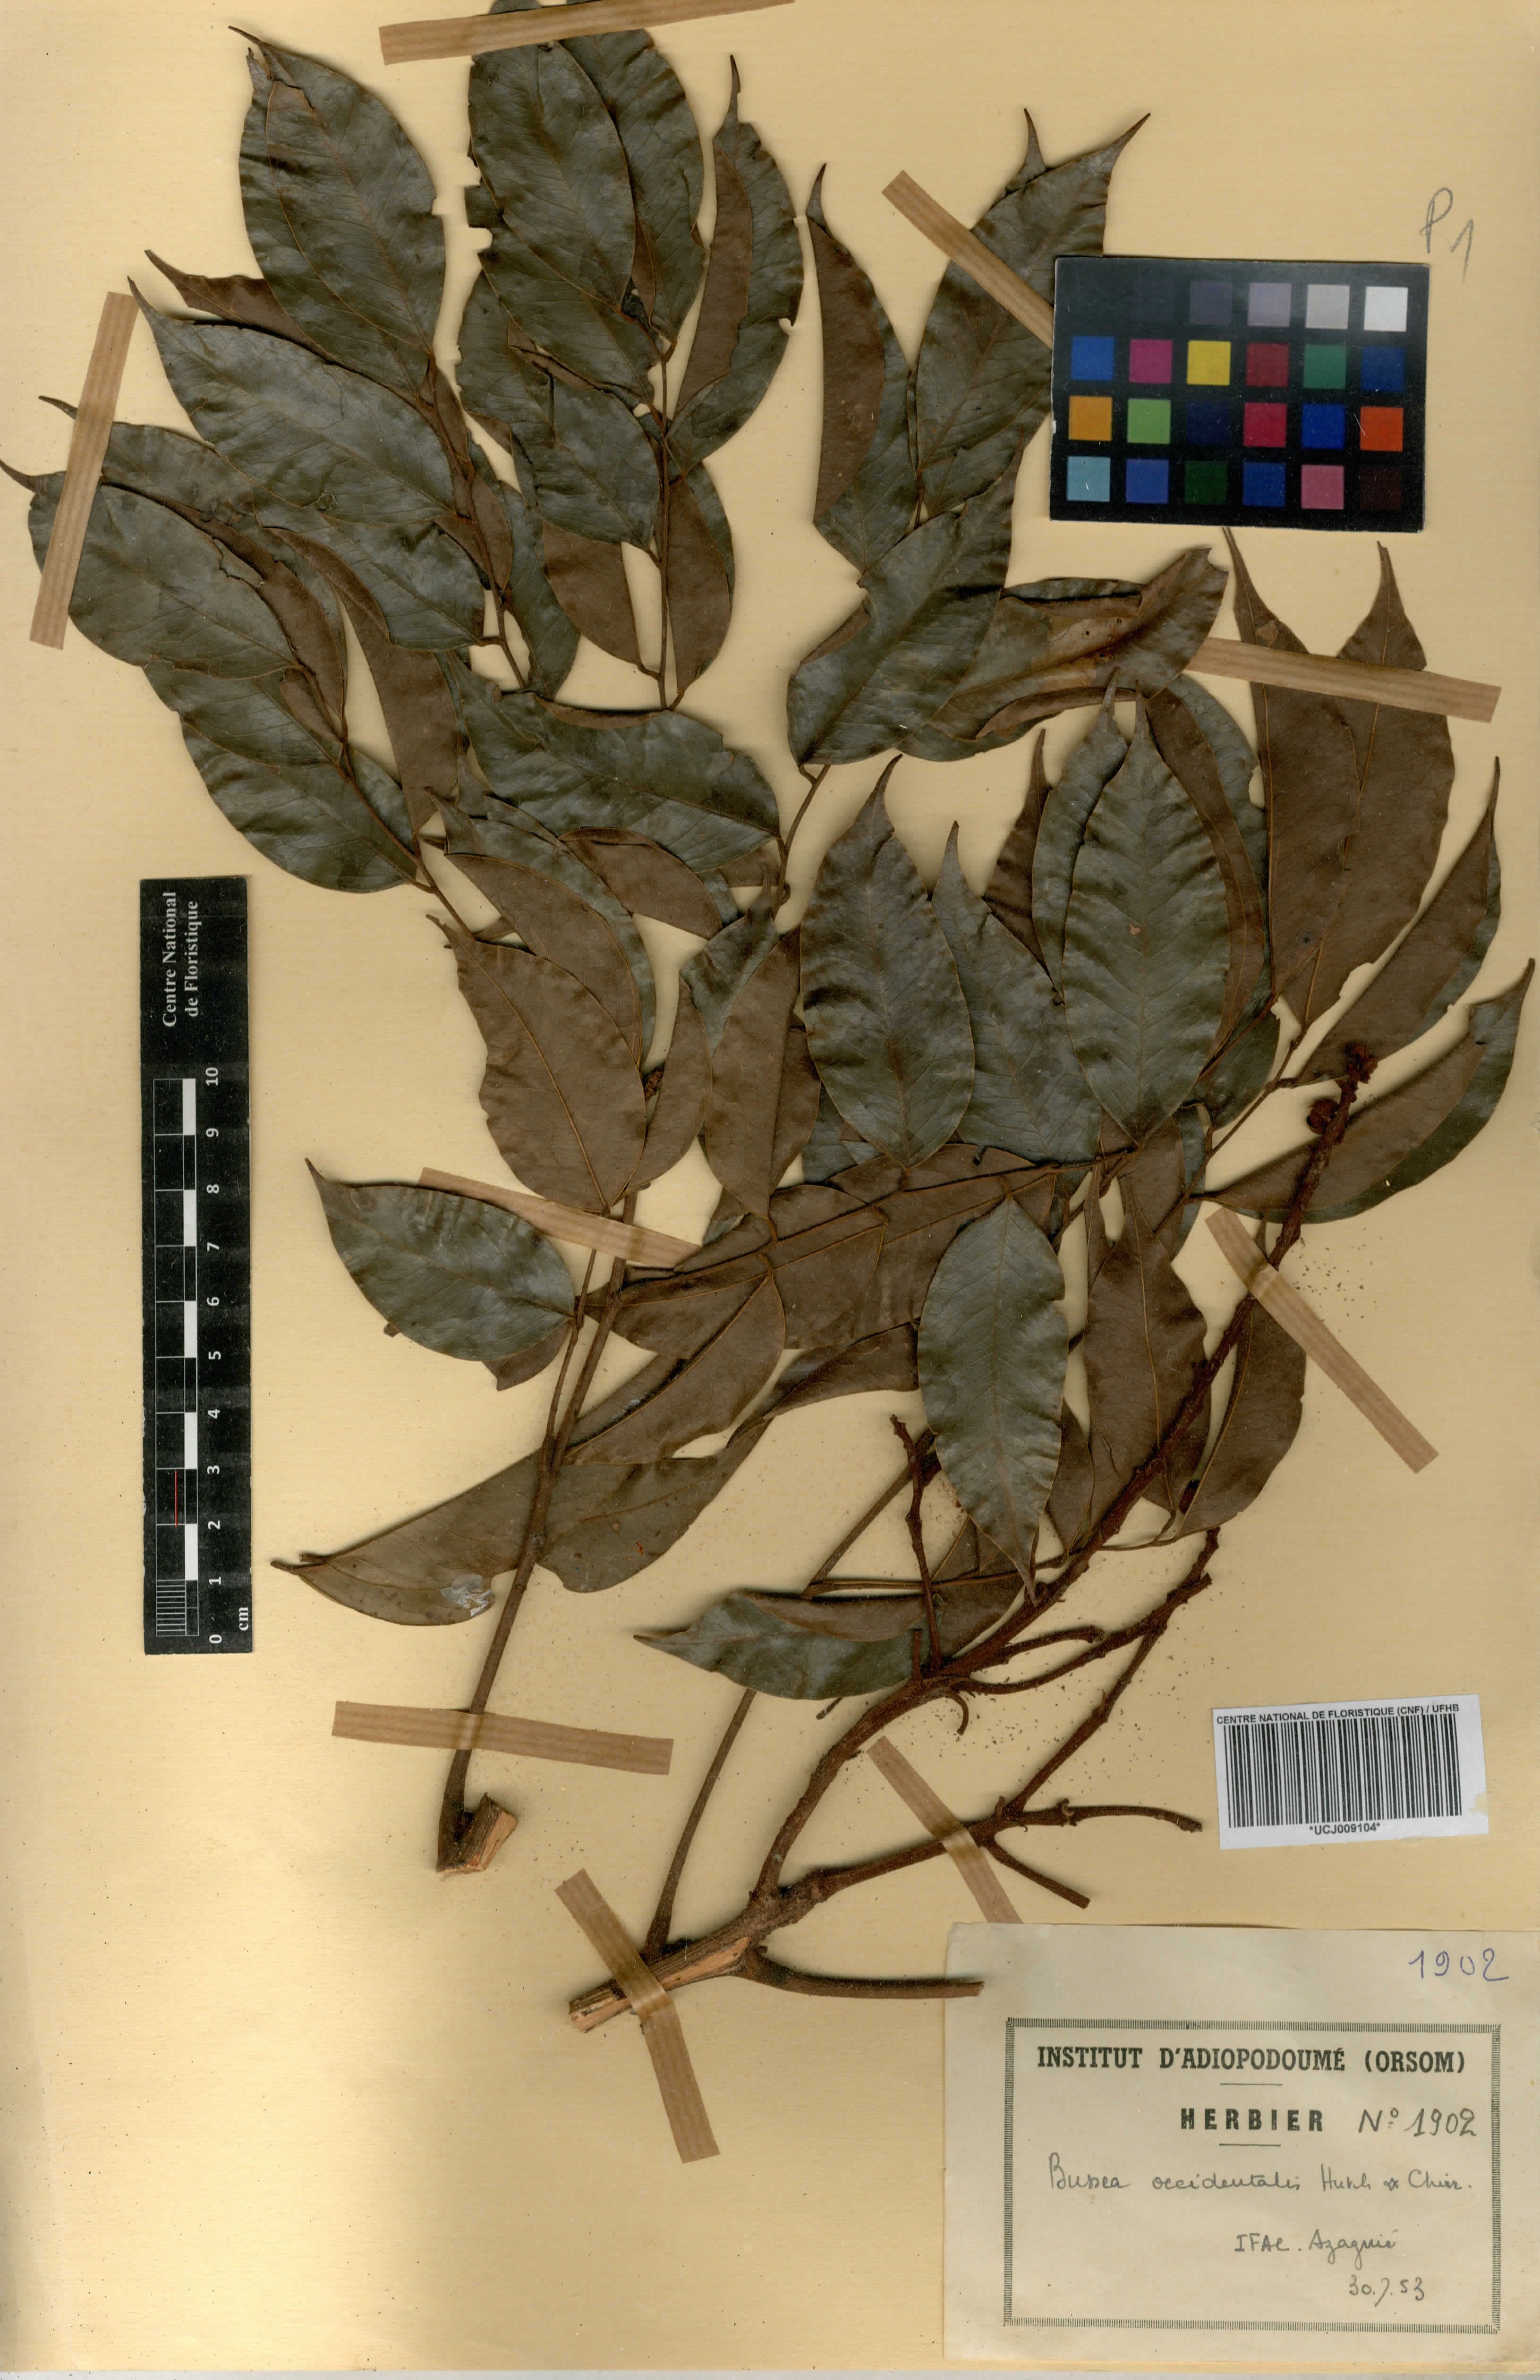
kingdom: Plantae
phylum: Tracheophyta
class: Magnoliopsida
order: Fabales
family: Fabaceae
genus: Bussea
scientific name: Bussea
